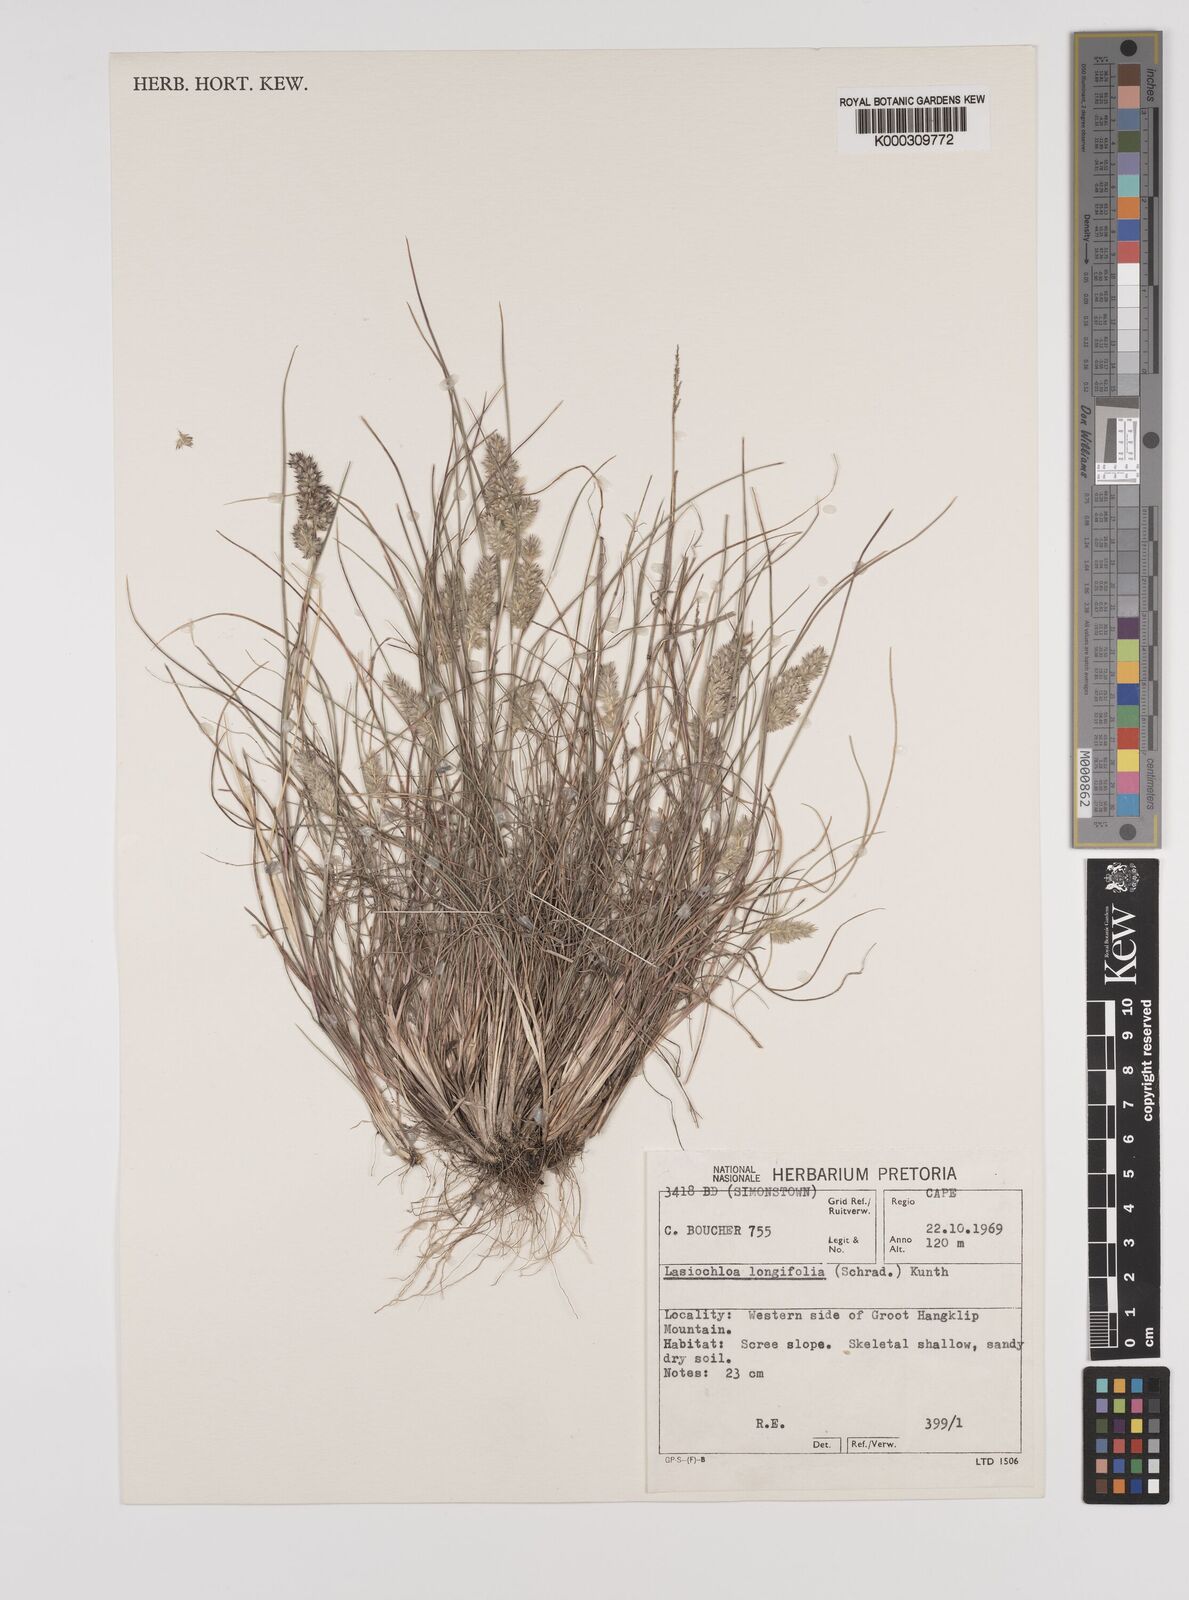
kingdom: Plantae
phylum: Tracheophyta
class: Liliopsida
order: Poales
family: Poaceae
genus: Tribolium
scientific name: Tribolium hispidum
